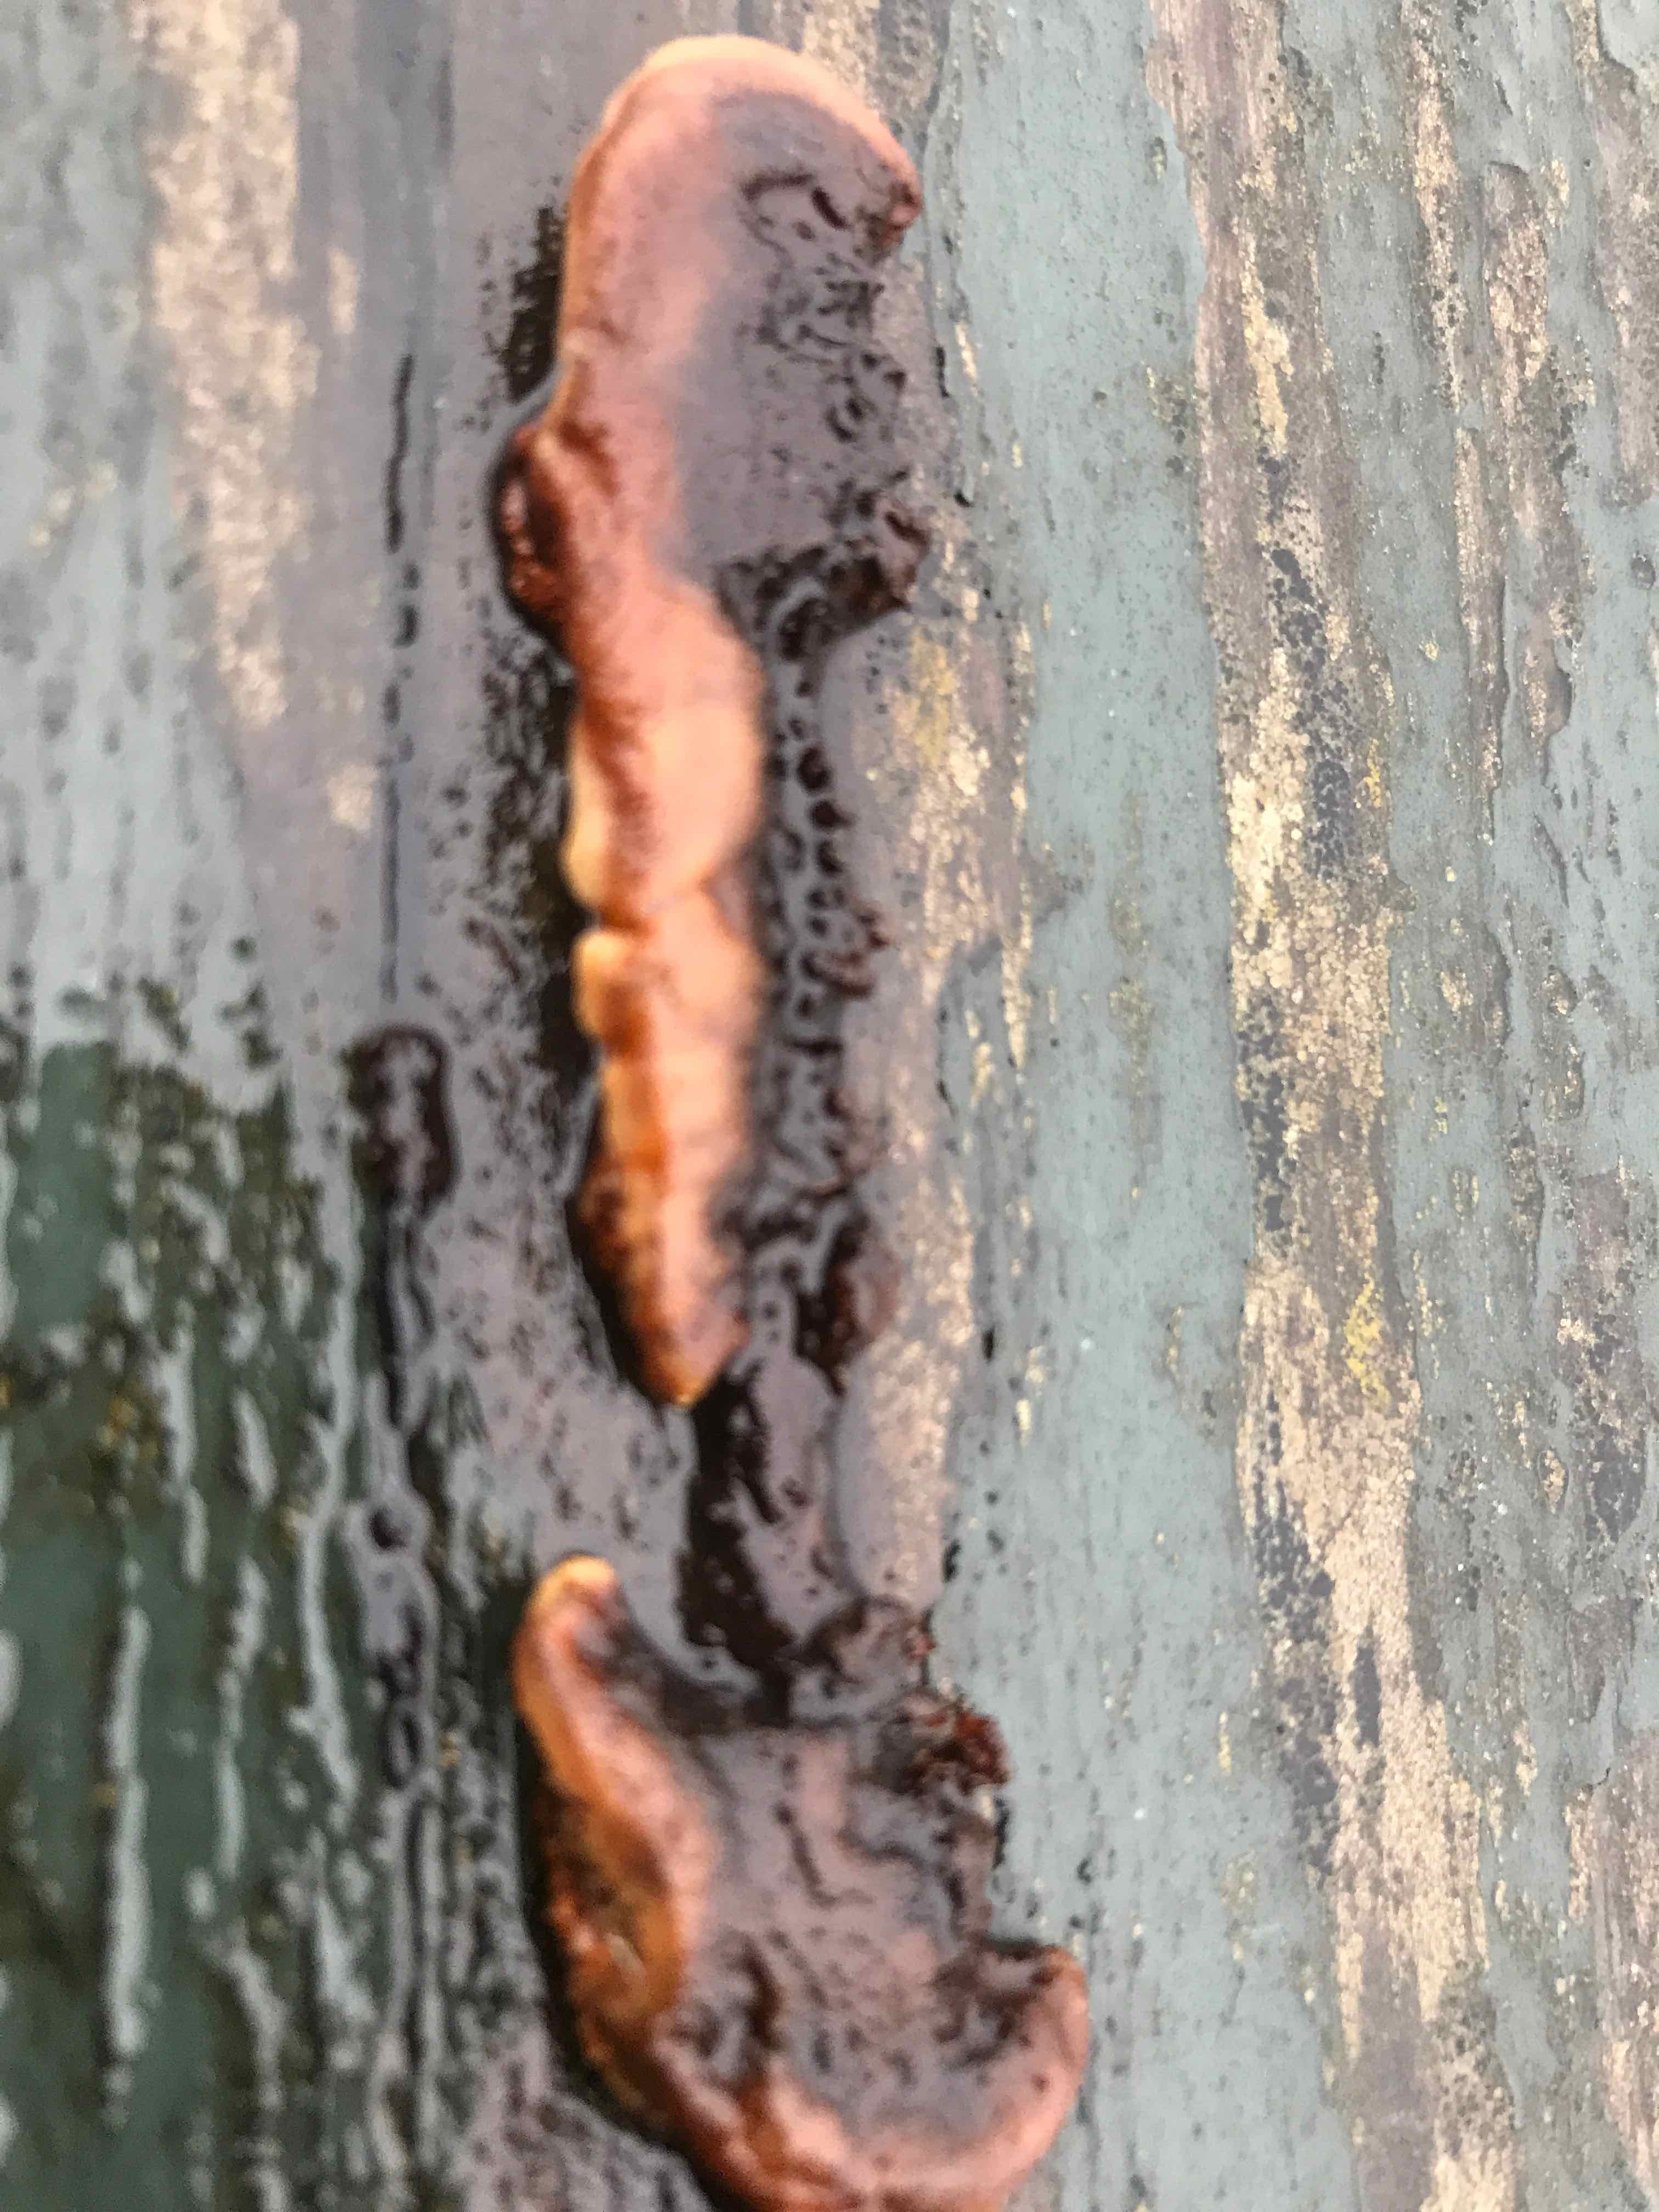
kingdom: Fungi
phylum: Basidiomycota
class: Agaricomycetes
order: Hymenochaetales
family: Hymenochaetaceae
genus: Fuscoporia
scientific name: Fuscoporia ferrea
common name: skorpe-ildporesvamp
